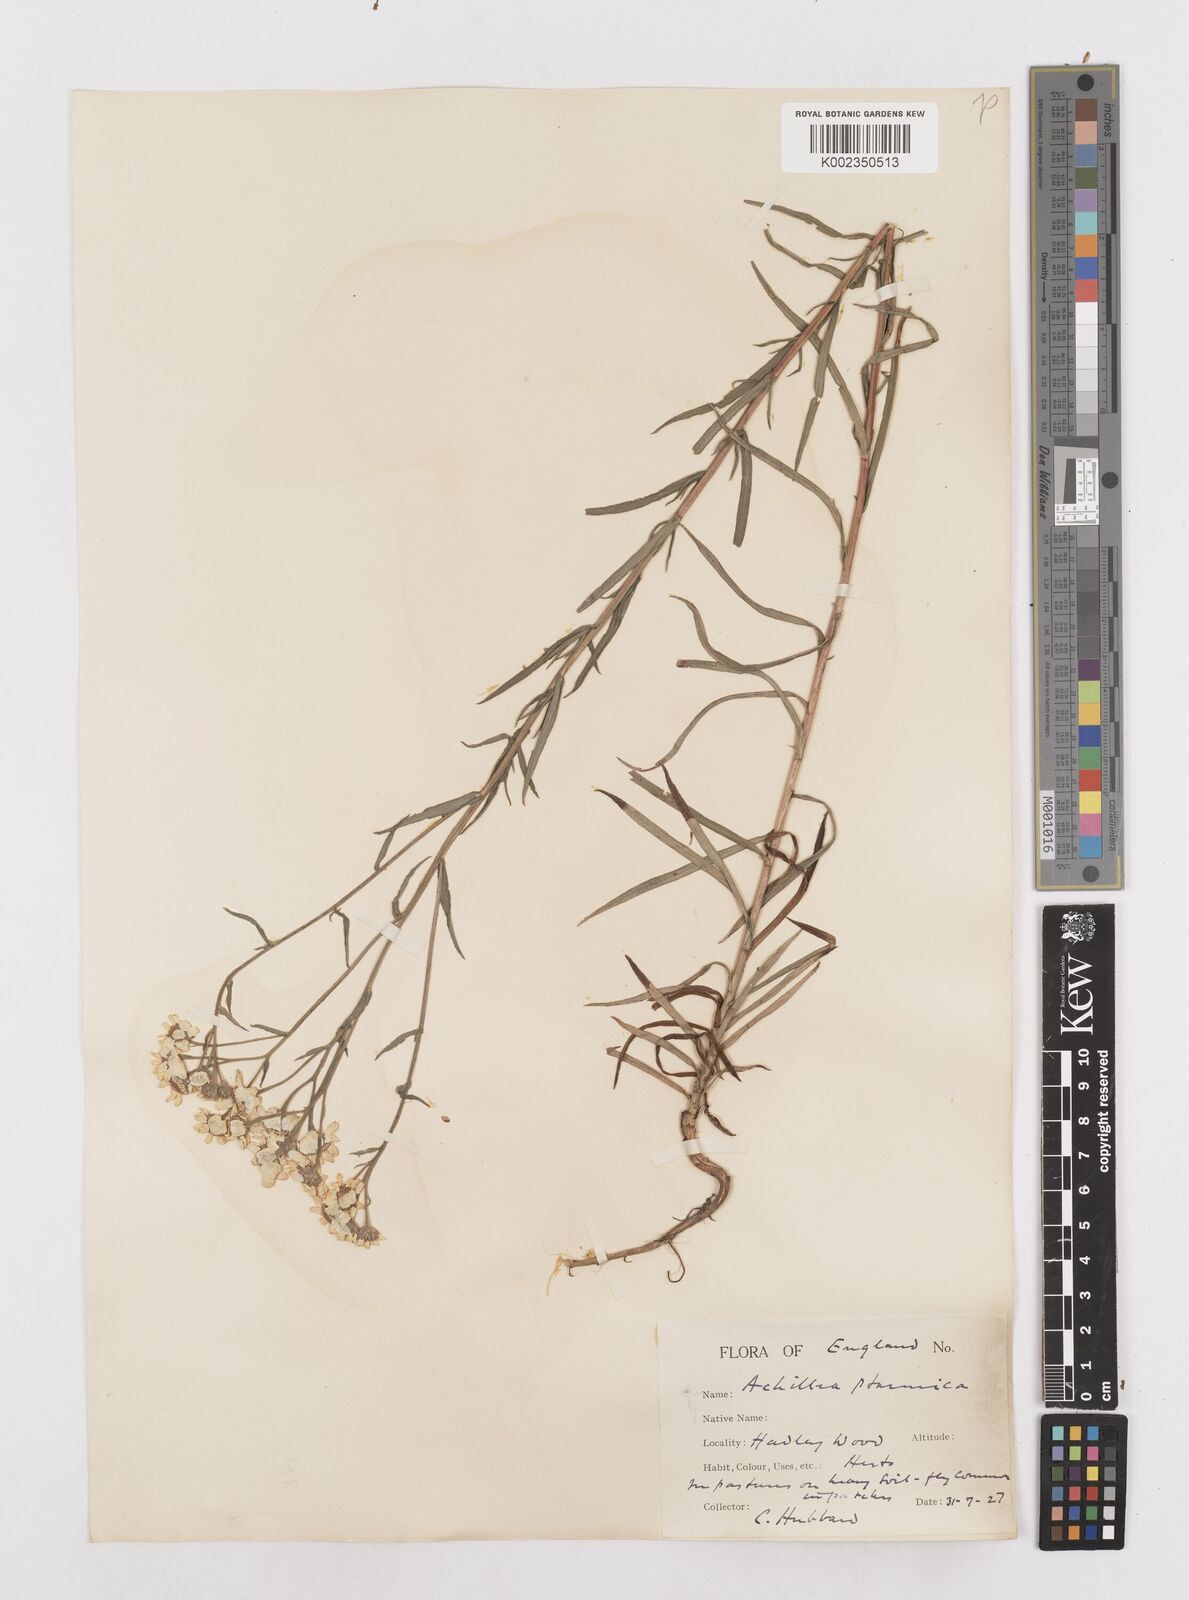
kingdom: Plantae
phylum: Tracheophyta
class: Magnoliopsida
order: Asterales
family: Asteraceae
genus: Achillea
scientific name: Achillea ptarmica
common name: Sneezeweed
